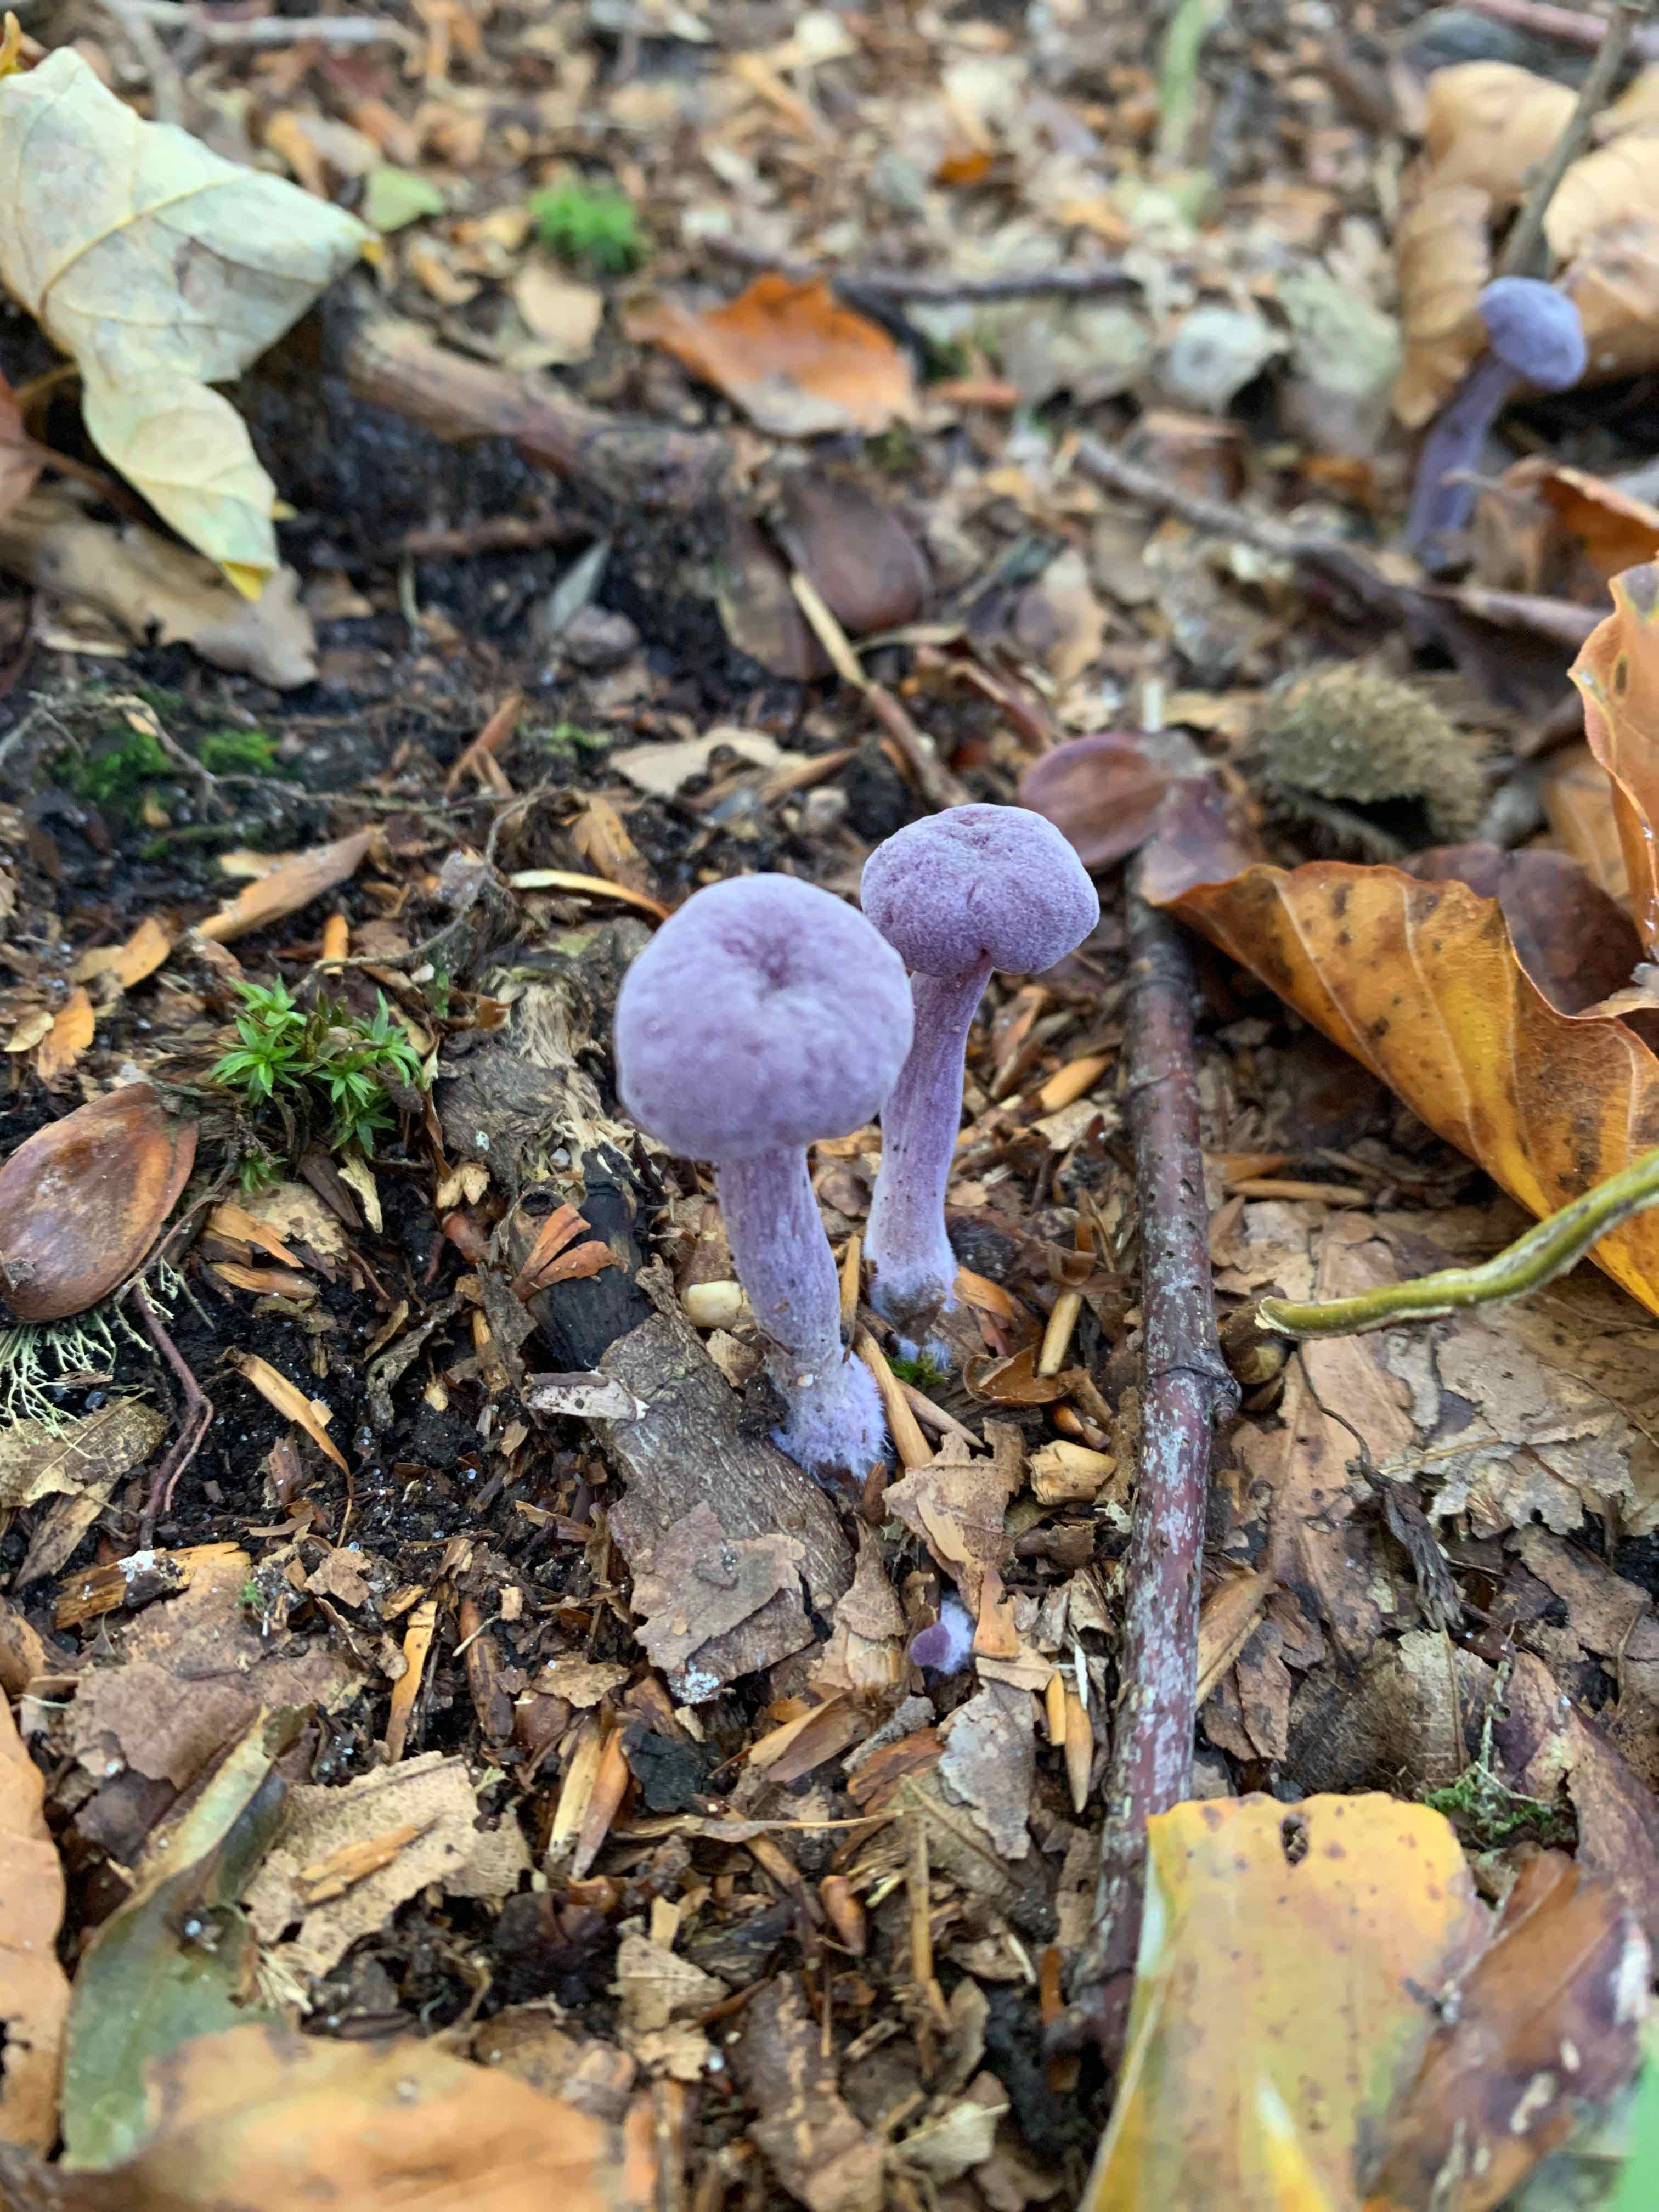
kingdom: Fungi
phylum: Basidiomycota
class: Agaricomycetes
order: Agaricales
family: Hydnangiaceae
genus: Laccaria
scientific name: Laccaria amethystina
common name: violet ametysthat
